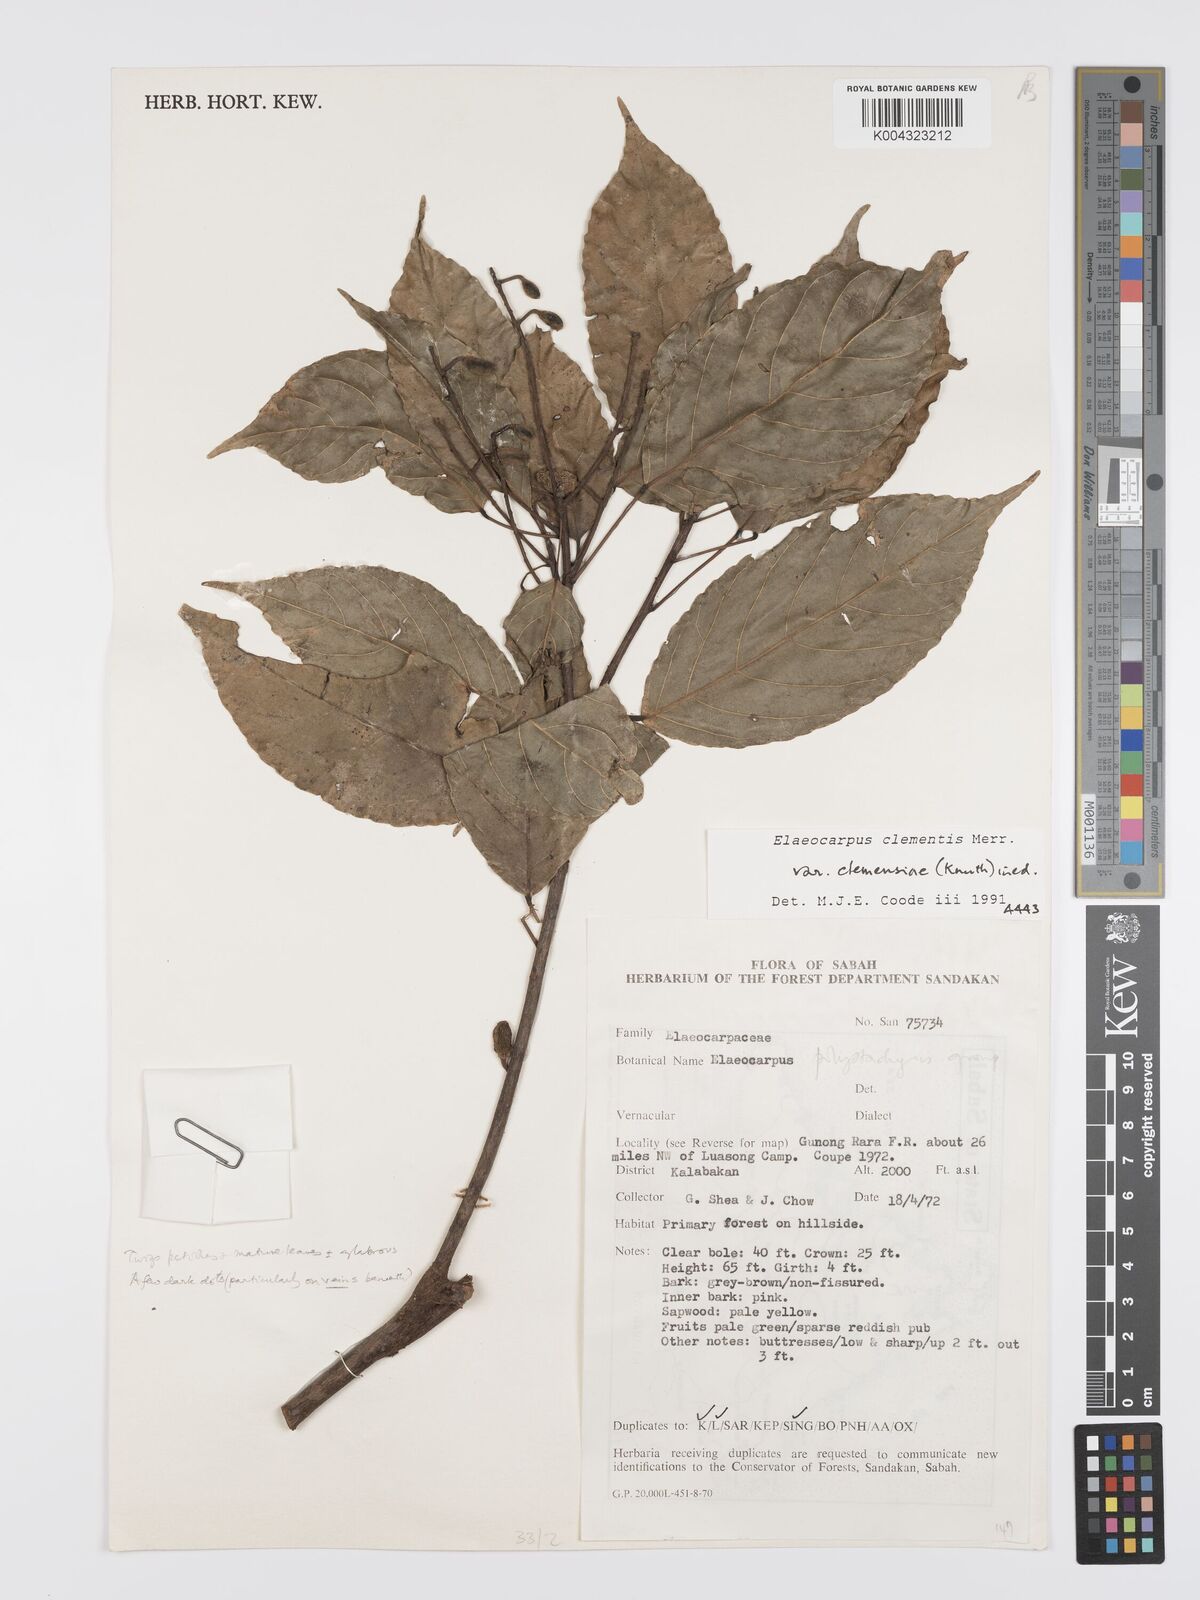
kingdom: Plantae
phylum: Tracheophyta
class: Magnoliopsida
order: Oxalidales
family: Elaeocarpaceae
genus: Elaeocarpus
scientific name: Elaeocarpus clementis
